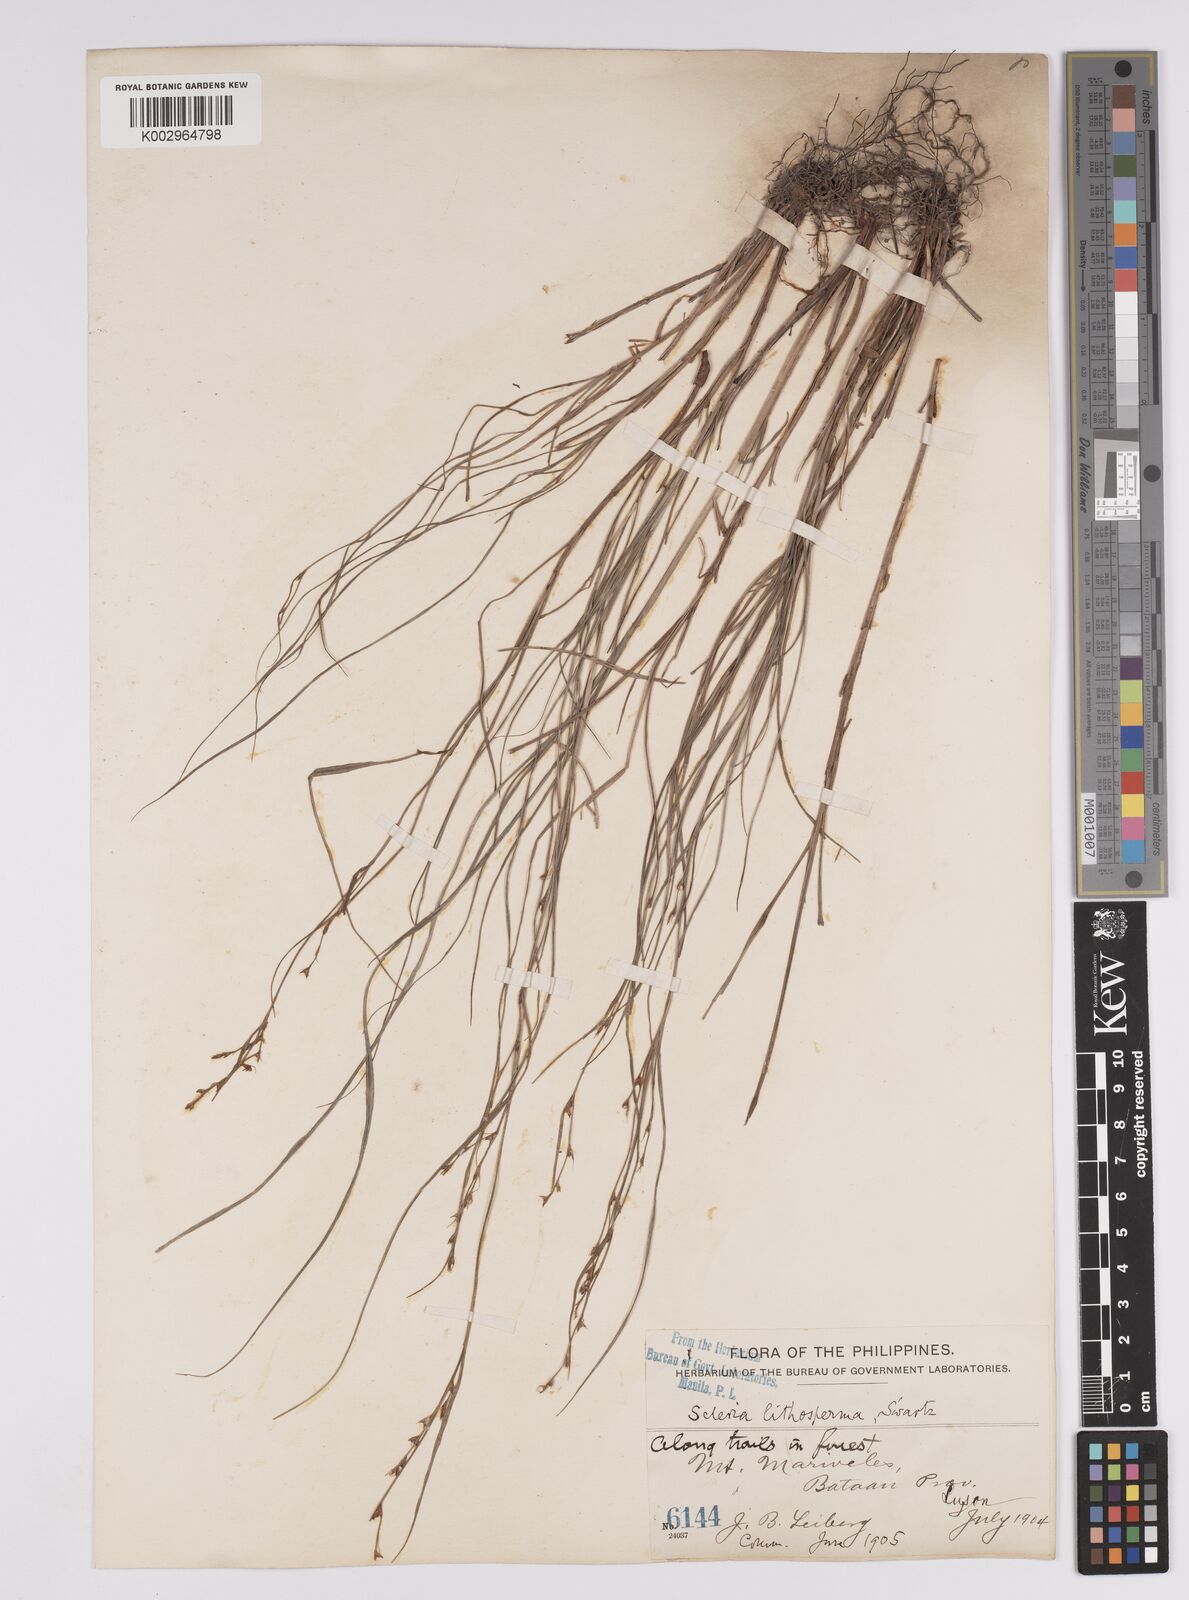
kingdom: Plantae
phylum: Tracheophyta
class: Liliopsida
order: Poales
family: Cyperaceae
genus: Scleria
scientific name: Scleria lithosperma
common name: Florida keys nut-rush
